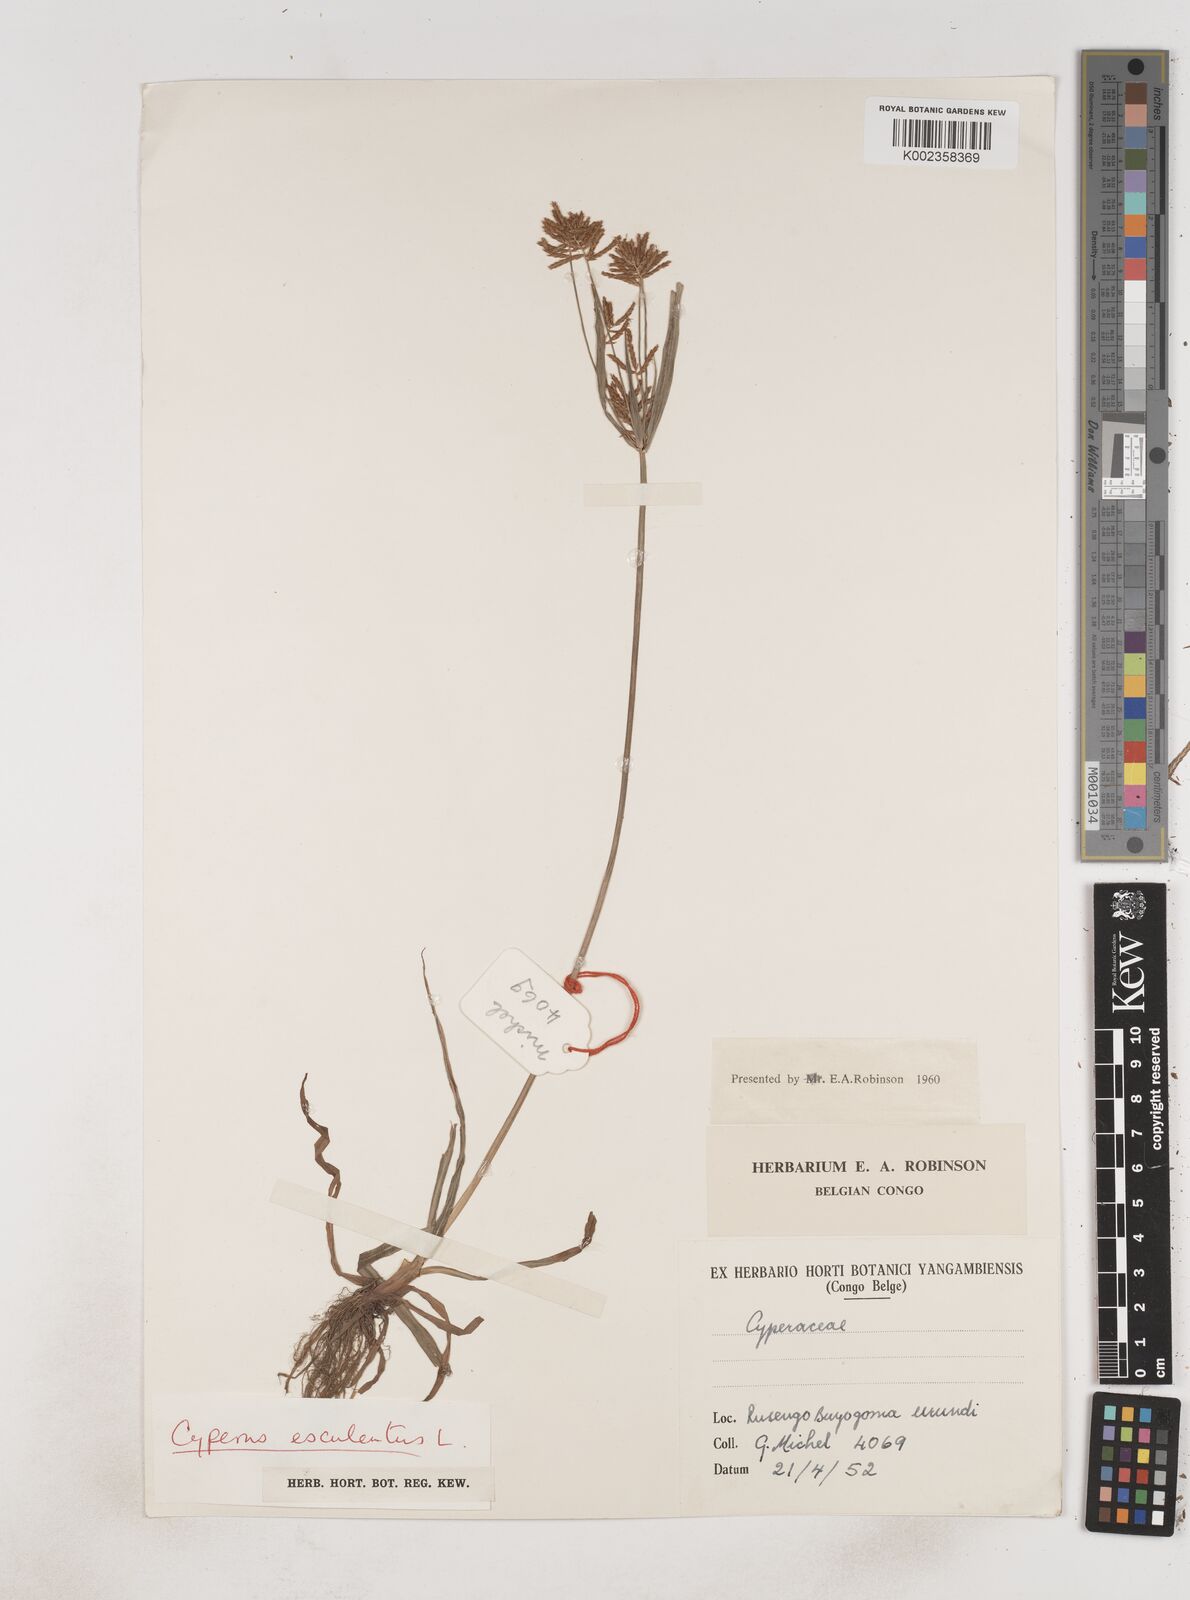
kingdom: Plantae
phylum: Tracheophyta
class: Liliopsida
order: Poales
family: Cyperaceae
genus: Cyperus
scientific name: Cyperus esculentus
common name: Yellow nutsedge
